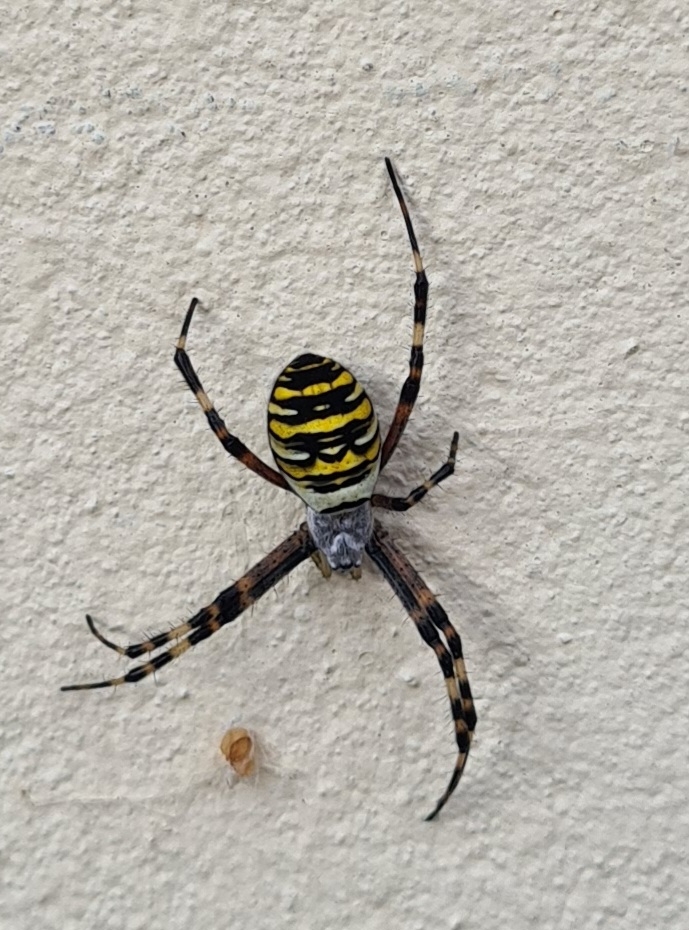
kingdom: Animalia
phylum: Arthropoda
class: Arachnida
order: Araneae
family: Araneidae
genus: Argiope
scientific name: Argiope bruennichi
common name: Hvepseedderkop
